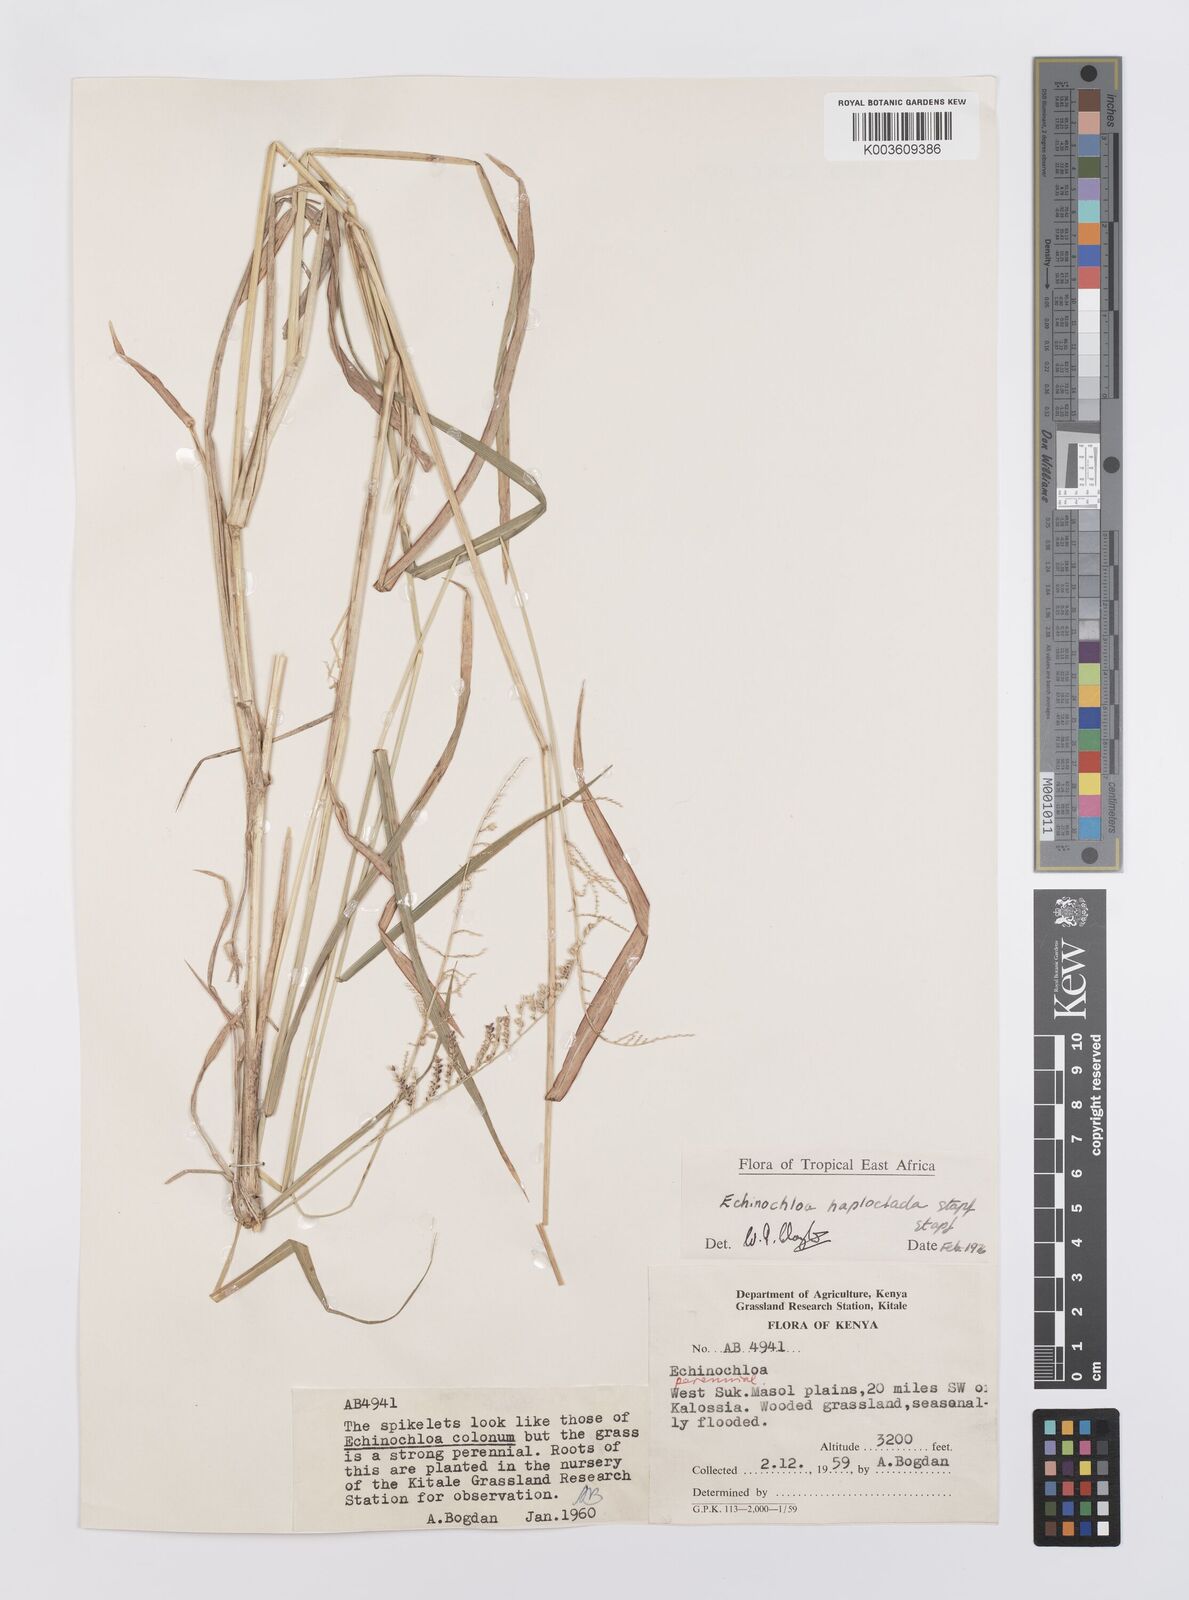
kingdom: Plantae
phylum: Tracheophyta
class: Liliopsida
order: Poales
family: Poaceae
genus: Echinochloa
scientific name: Echinochloa haploclada
